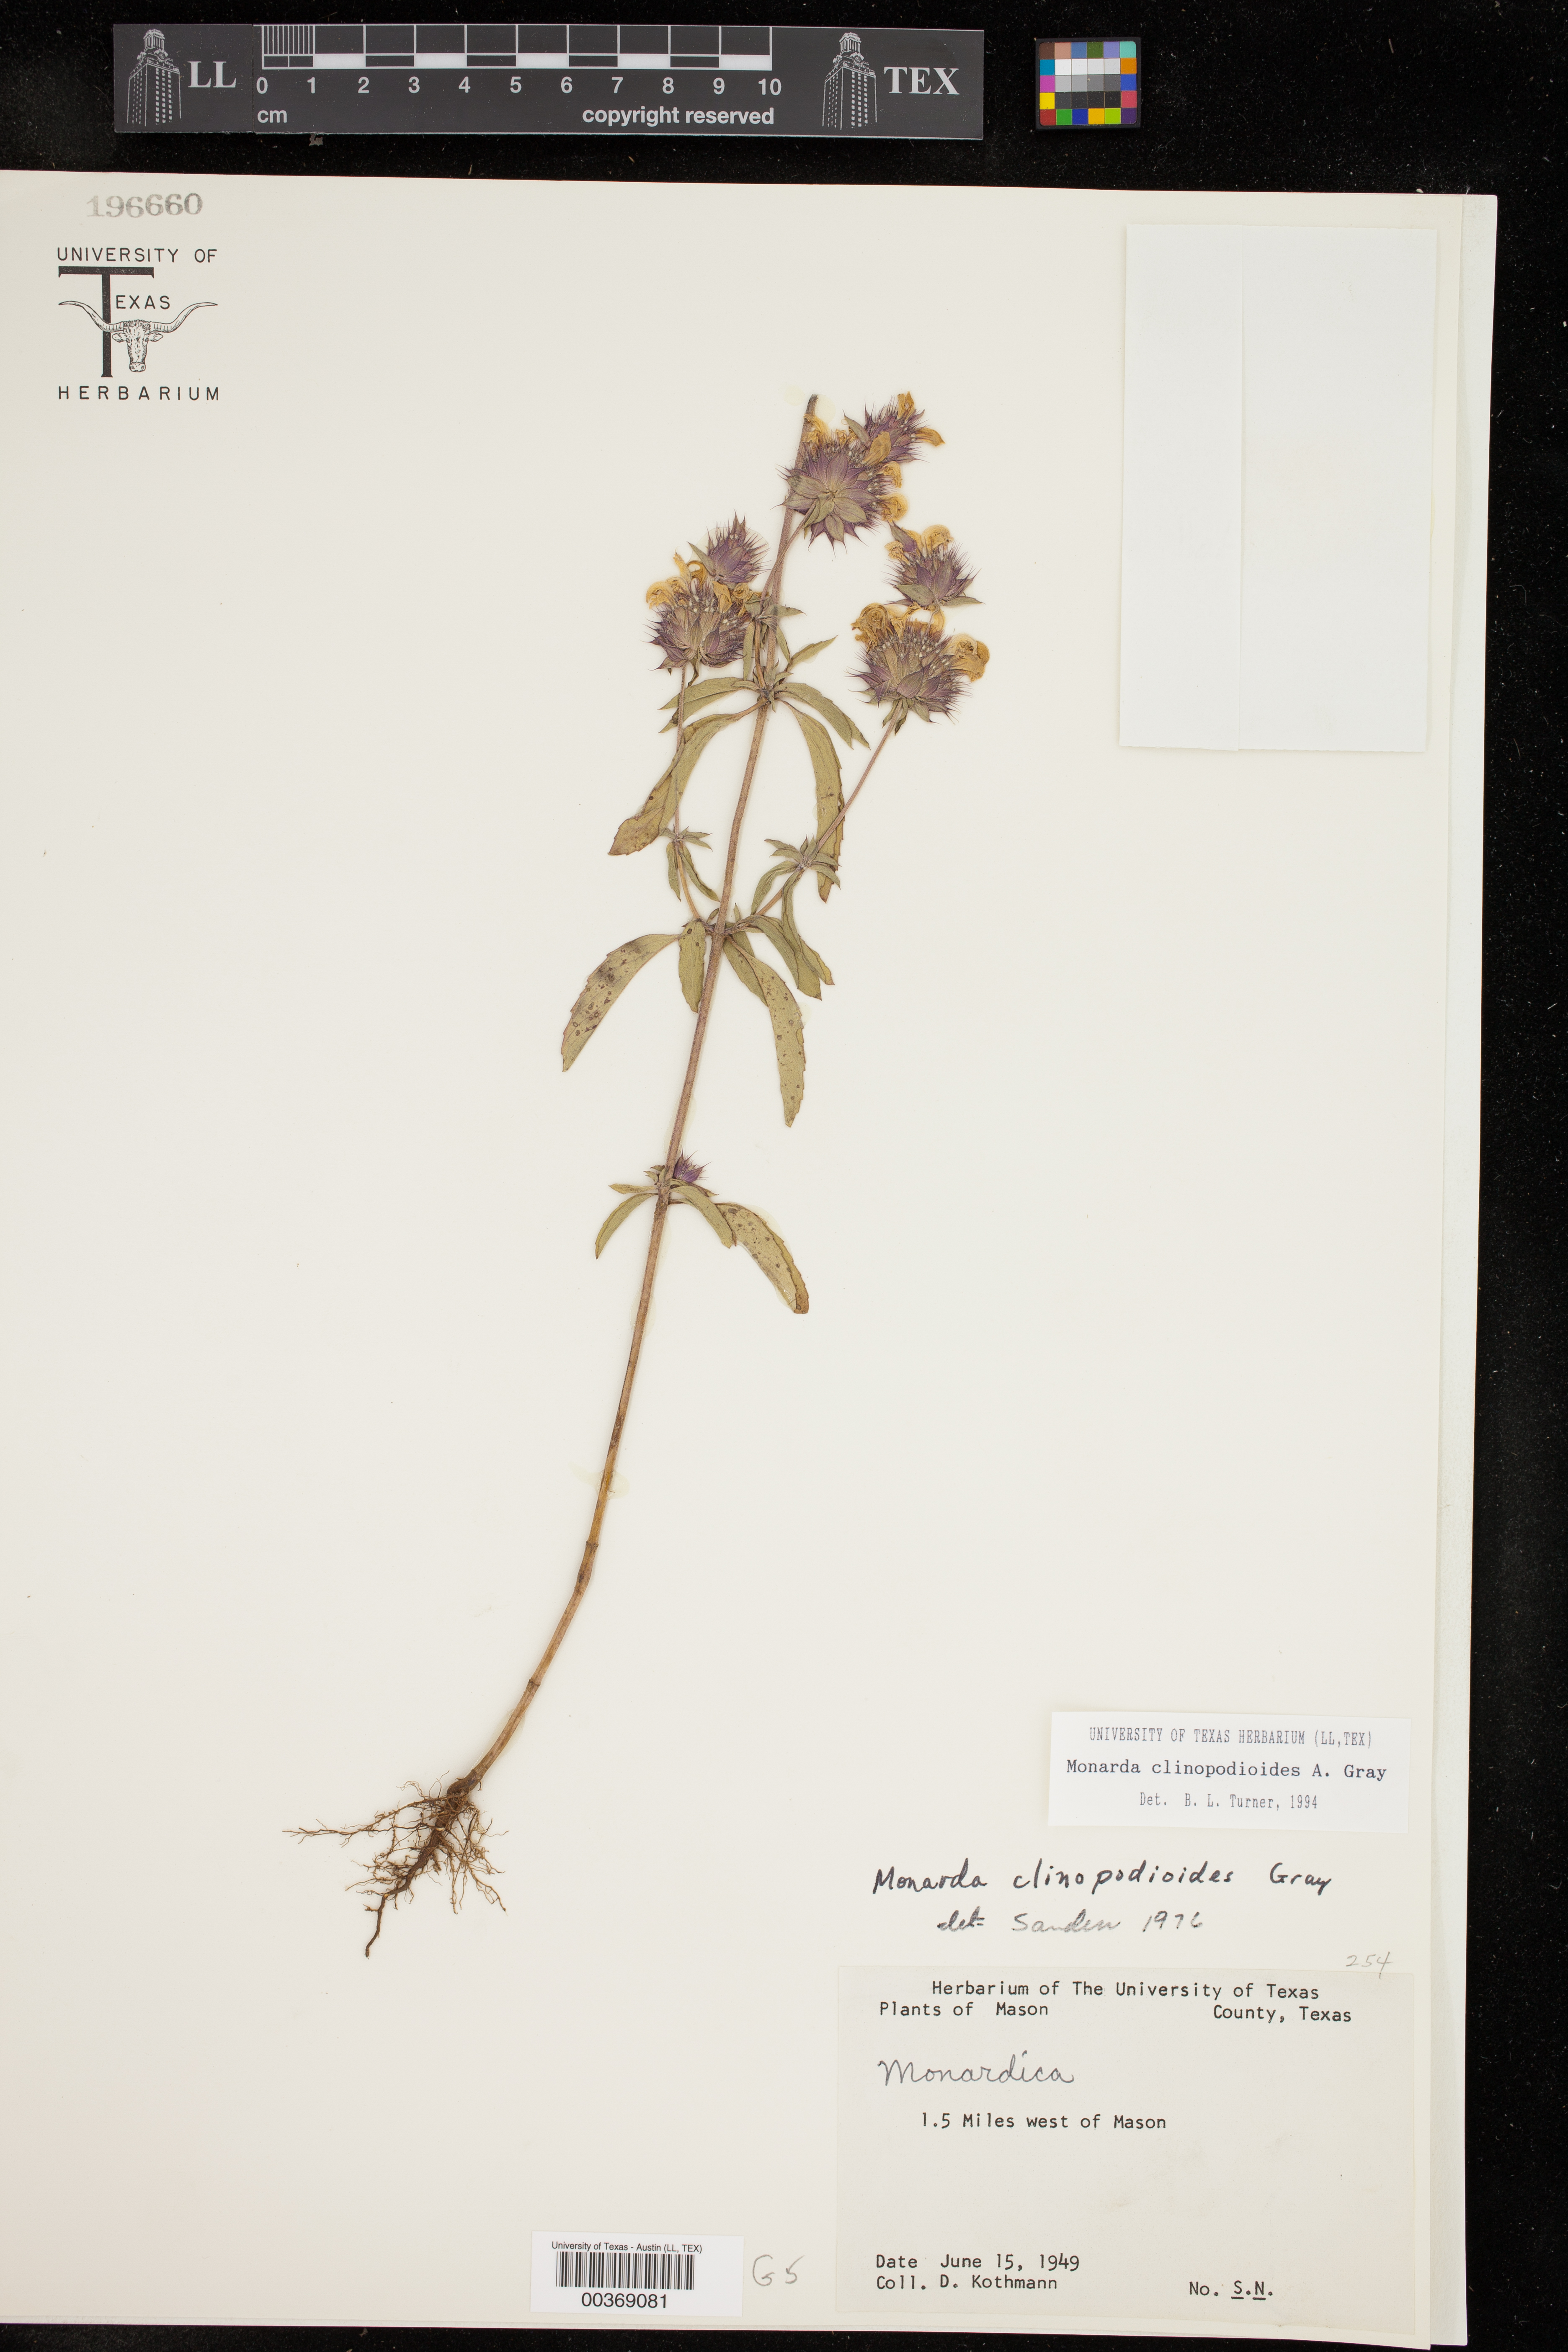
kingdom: Plantae
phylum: Tracheophyta
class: Magnoliopsida
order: Lamiales
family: Lamiaceae
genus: Monarda
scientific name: Monarda clinopodioides
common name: Basil beebalm
